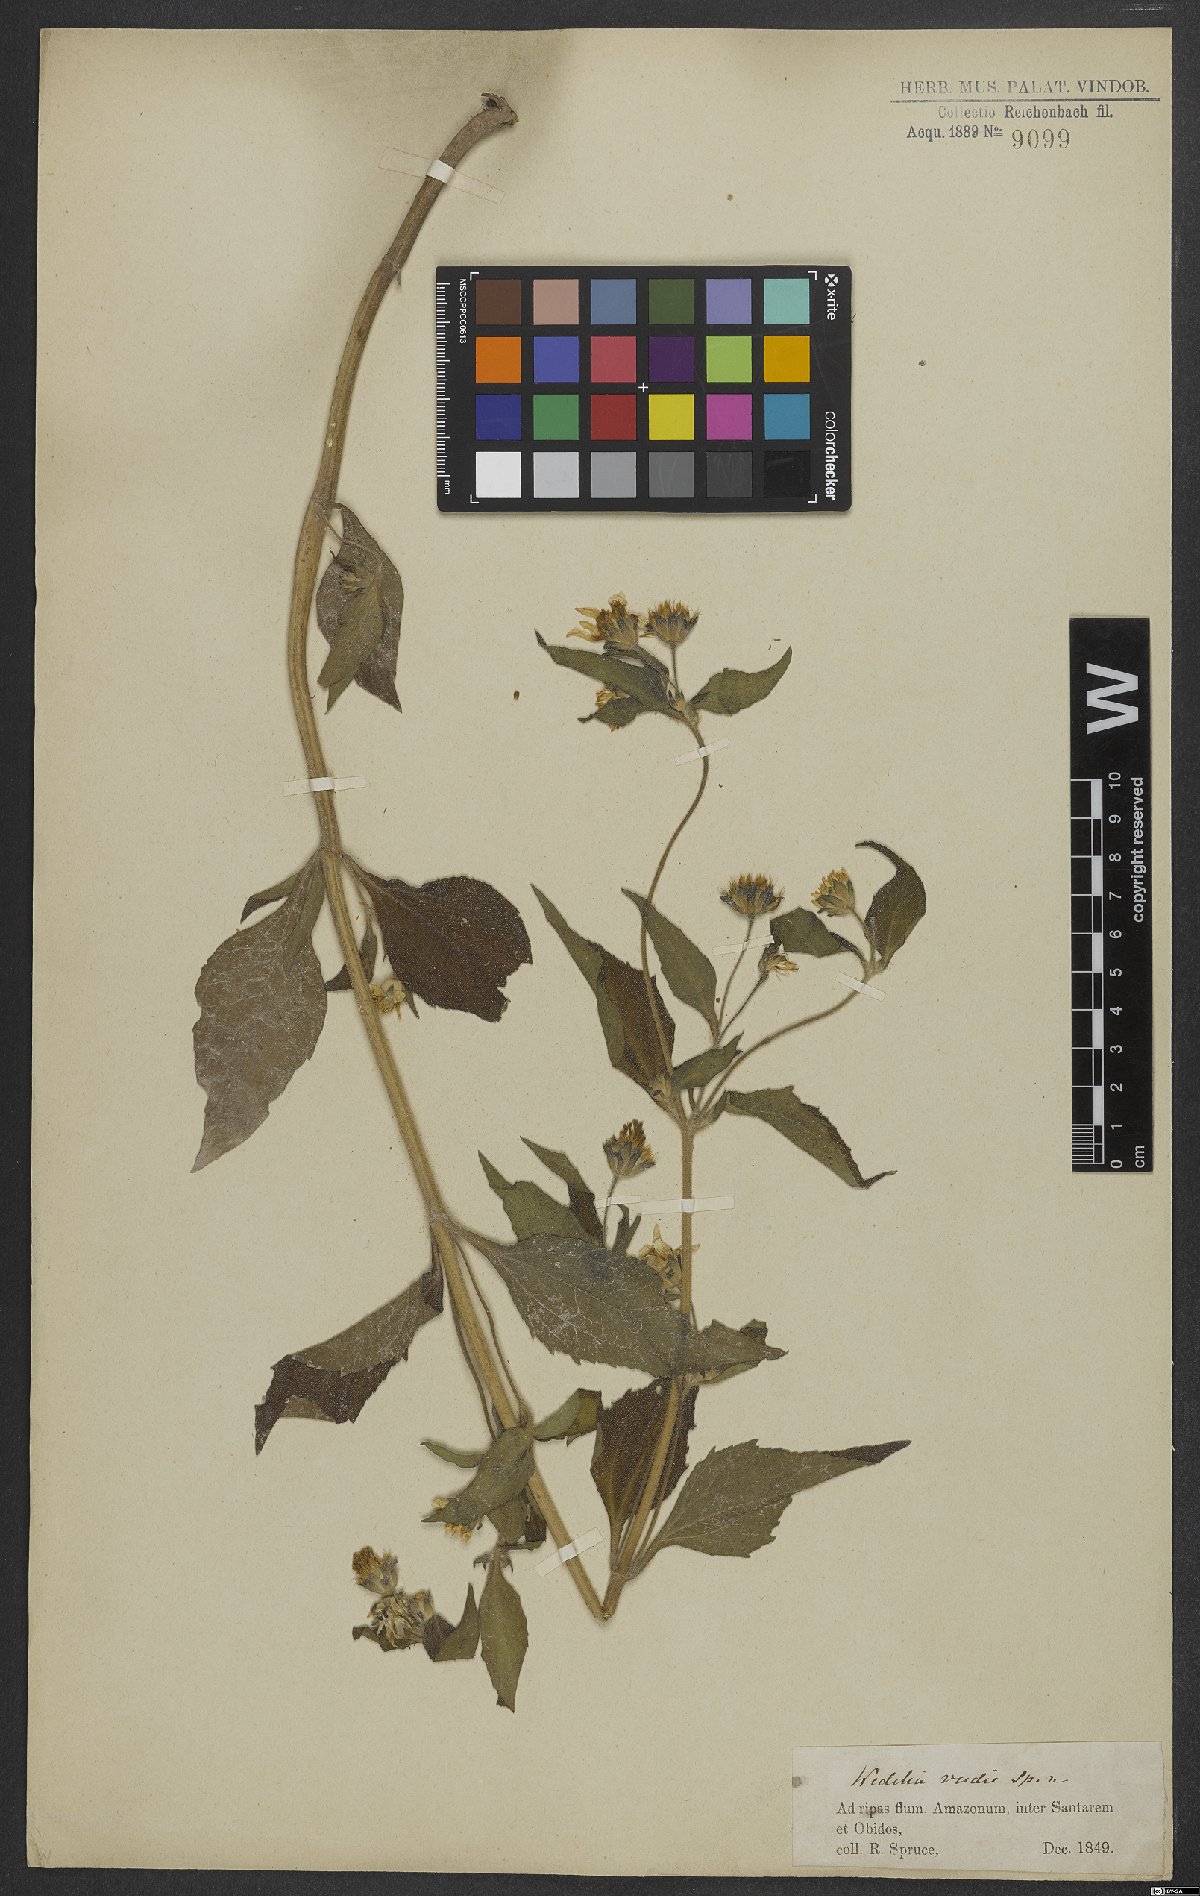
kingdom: Plantae
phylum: Tracheophyta
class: Magnoliopsida
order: Asterales
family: Asteraceae
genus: Wedelia
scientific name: Wedelia
